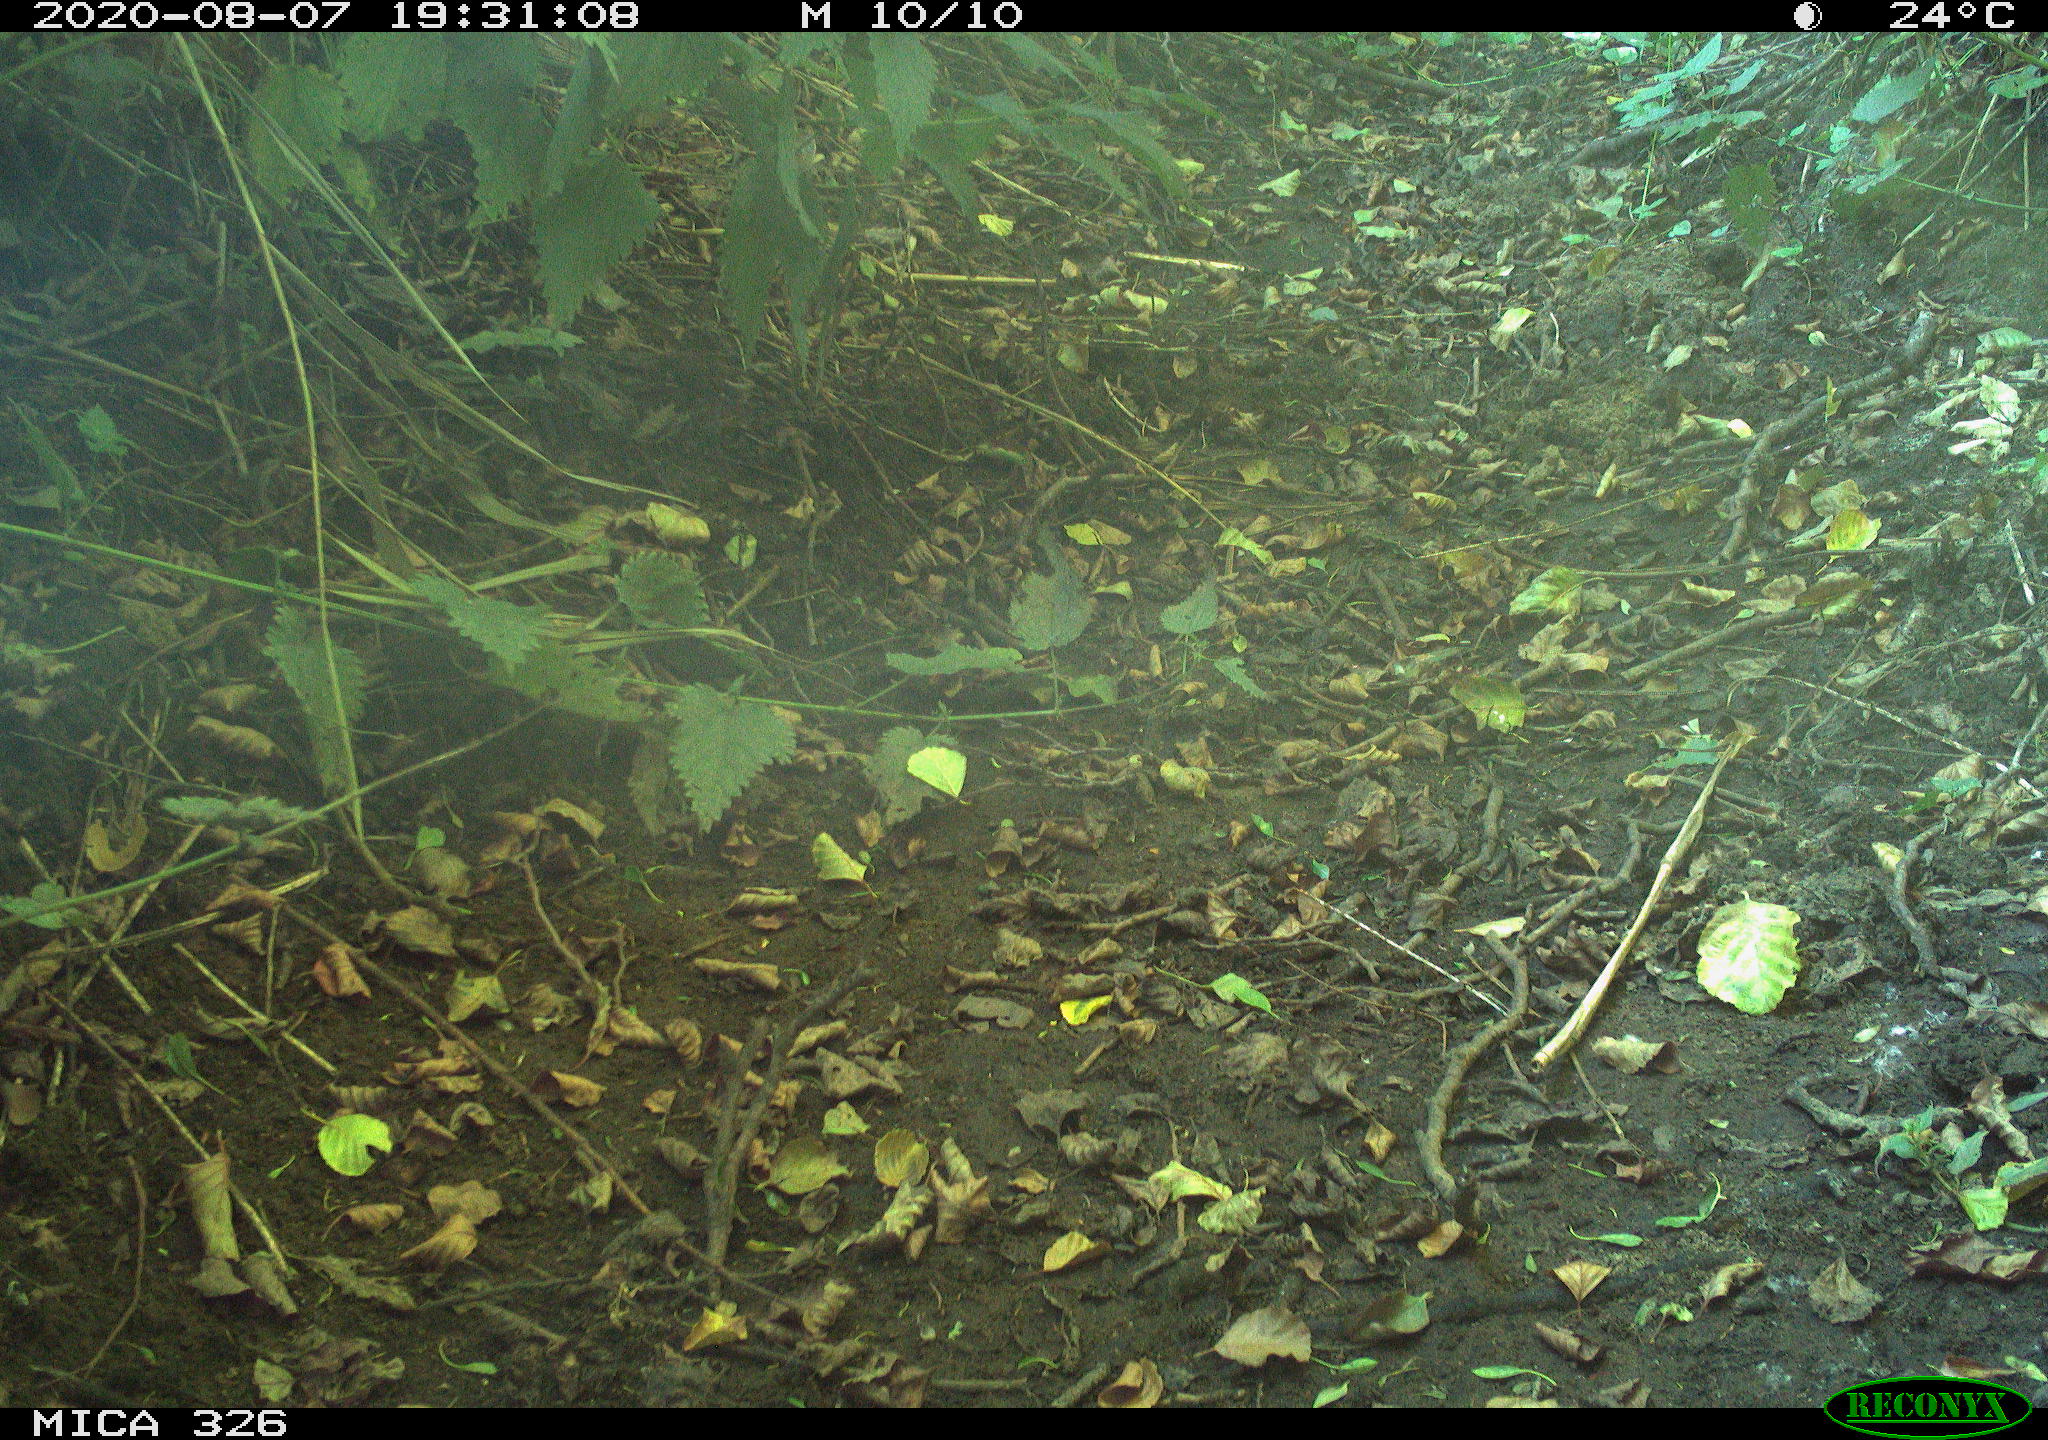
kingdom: Animalia
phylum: Chordata
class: Aves
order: Passeriformes
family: Turdidae
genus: Turdus
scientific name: Turdus philomelos
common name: Song thrush
